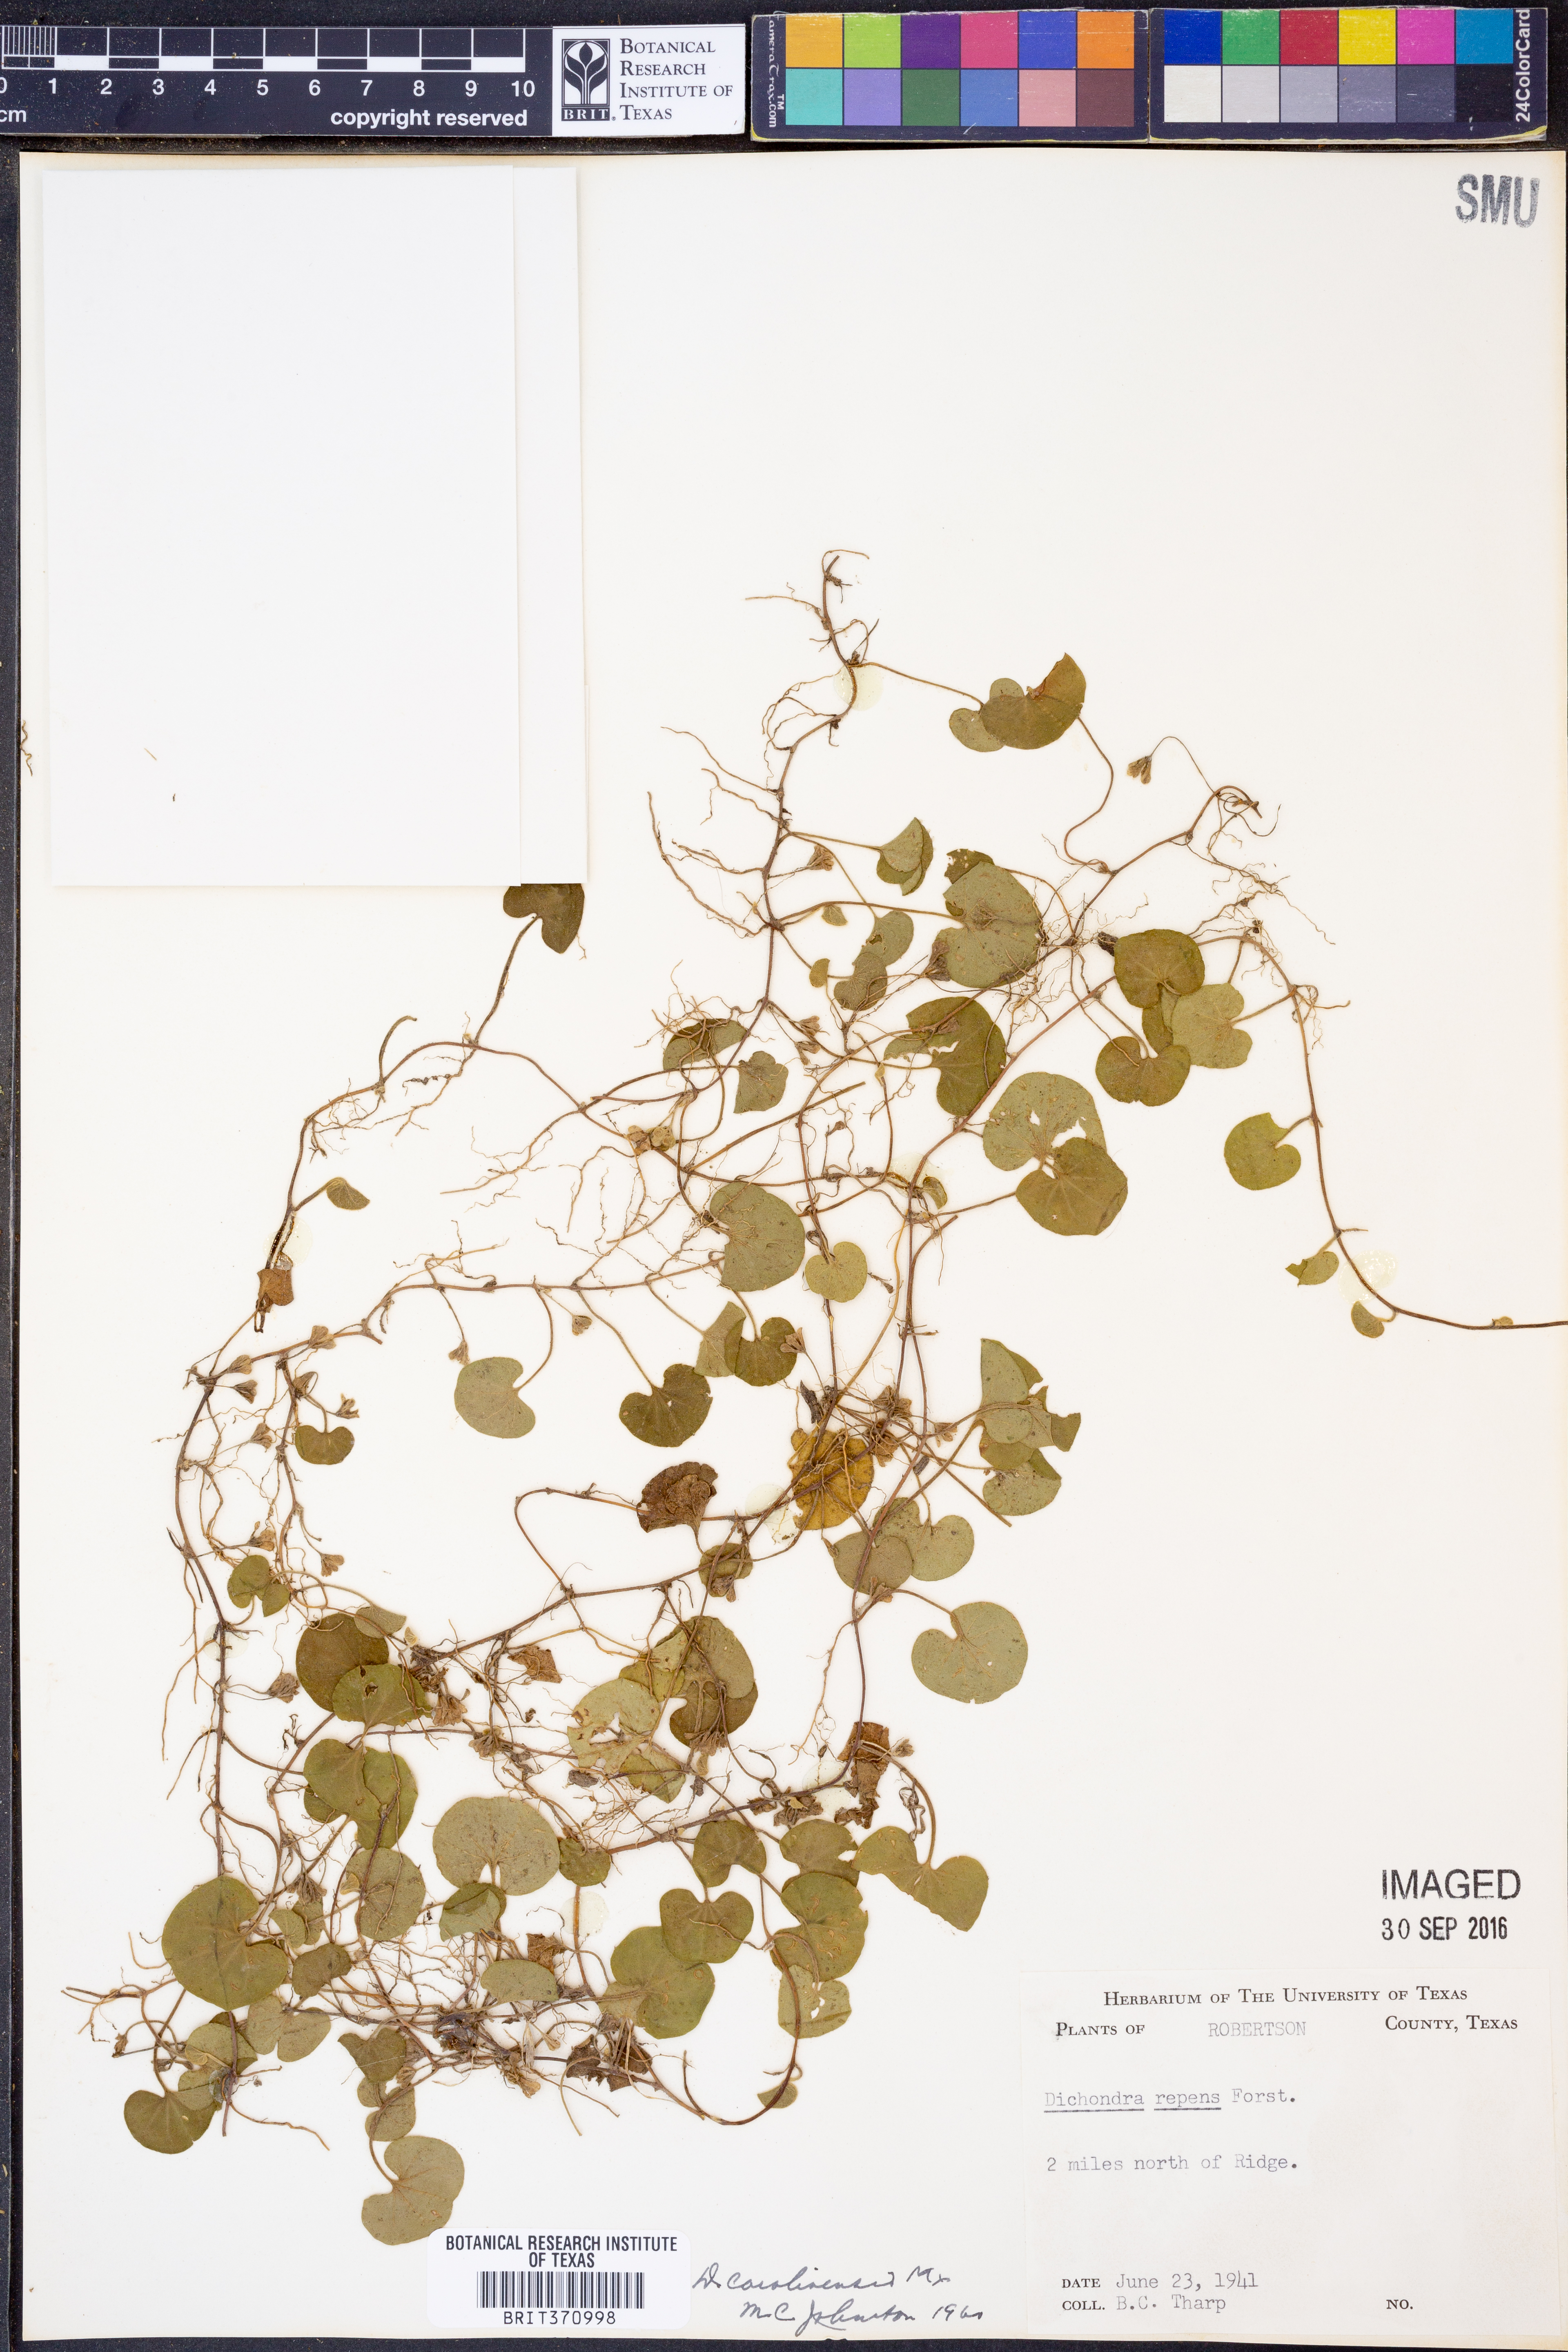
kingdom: Plantae
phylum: Tracheophyta
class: Magnoliopsida
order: Solanales
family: Convolvulaceae
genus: Dichondra
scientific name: Dichondra carolinensis
